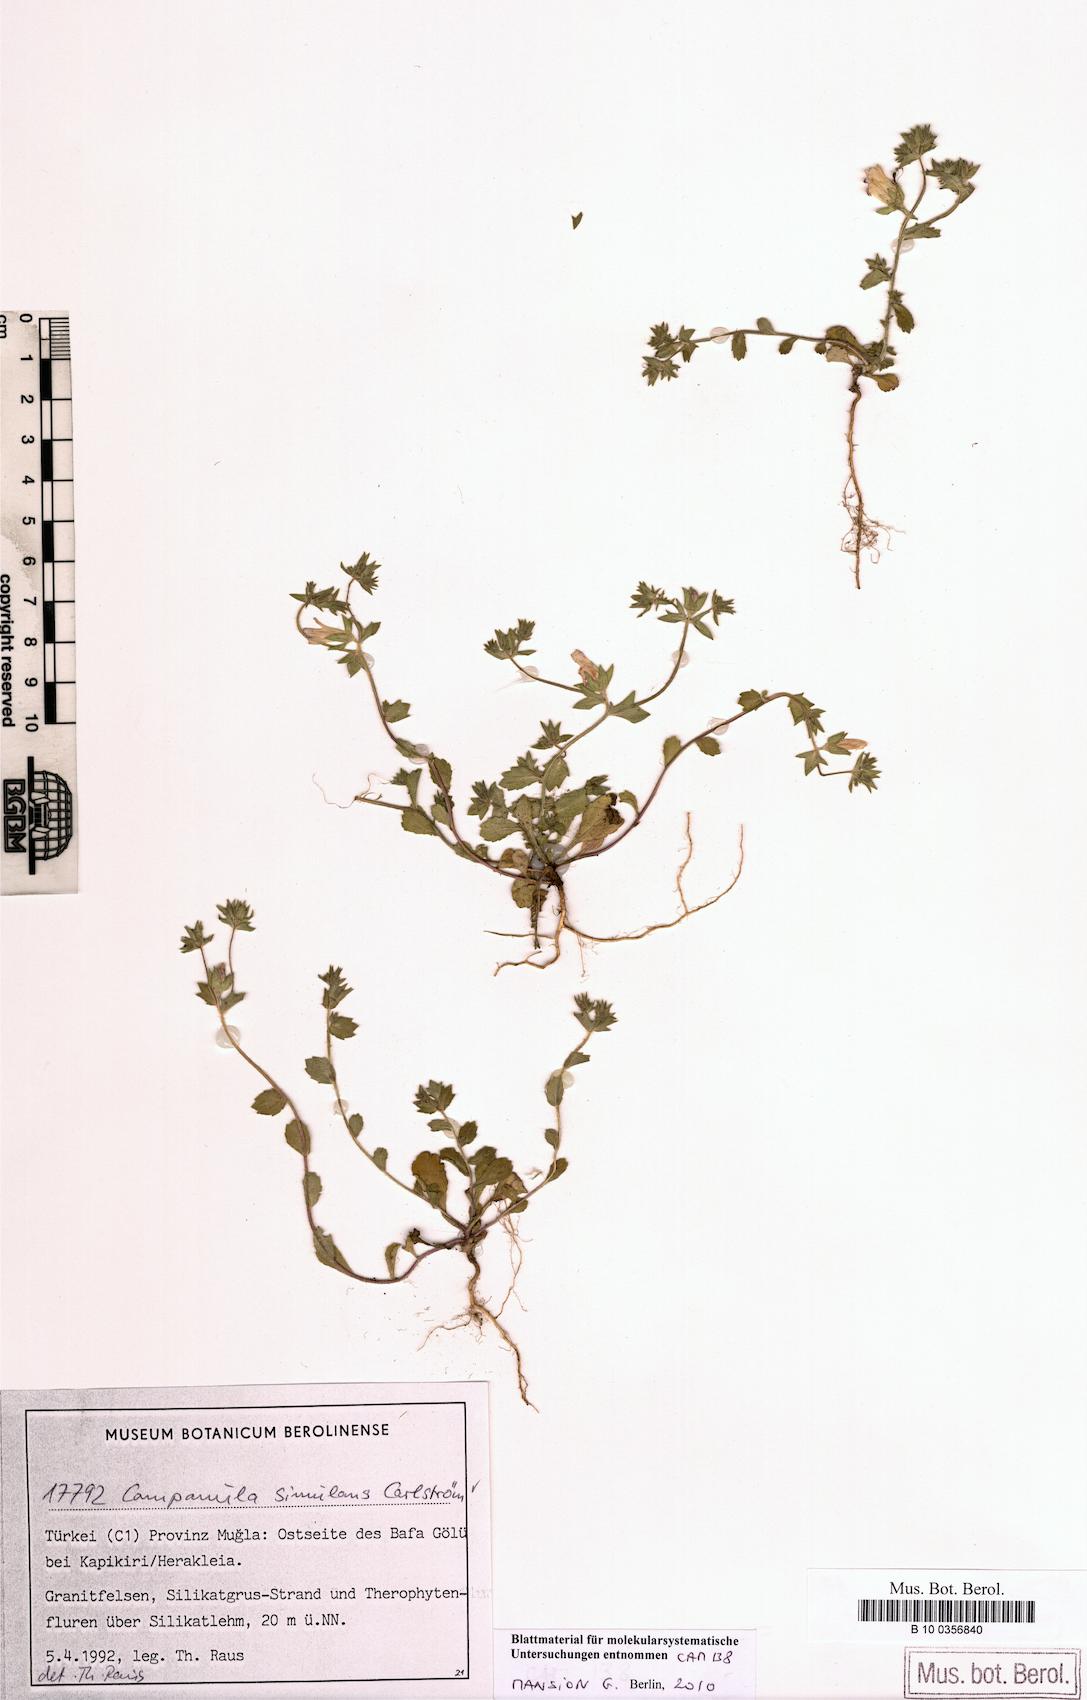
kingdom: Plantae
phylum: Tracheophyta
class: Magnoliopsida
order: Asterales
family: Campanulaceae
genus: Campanula
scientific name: Campanula simulans
